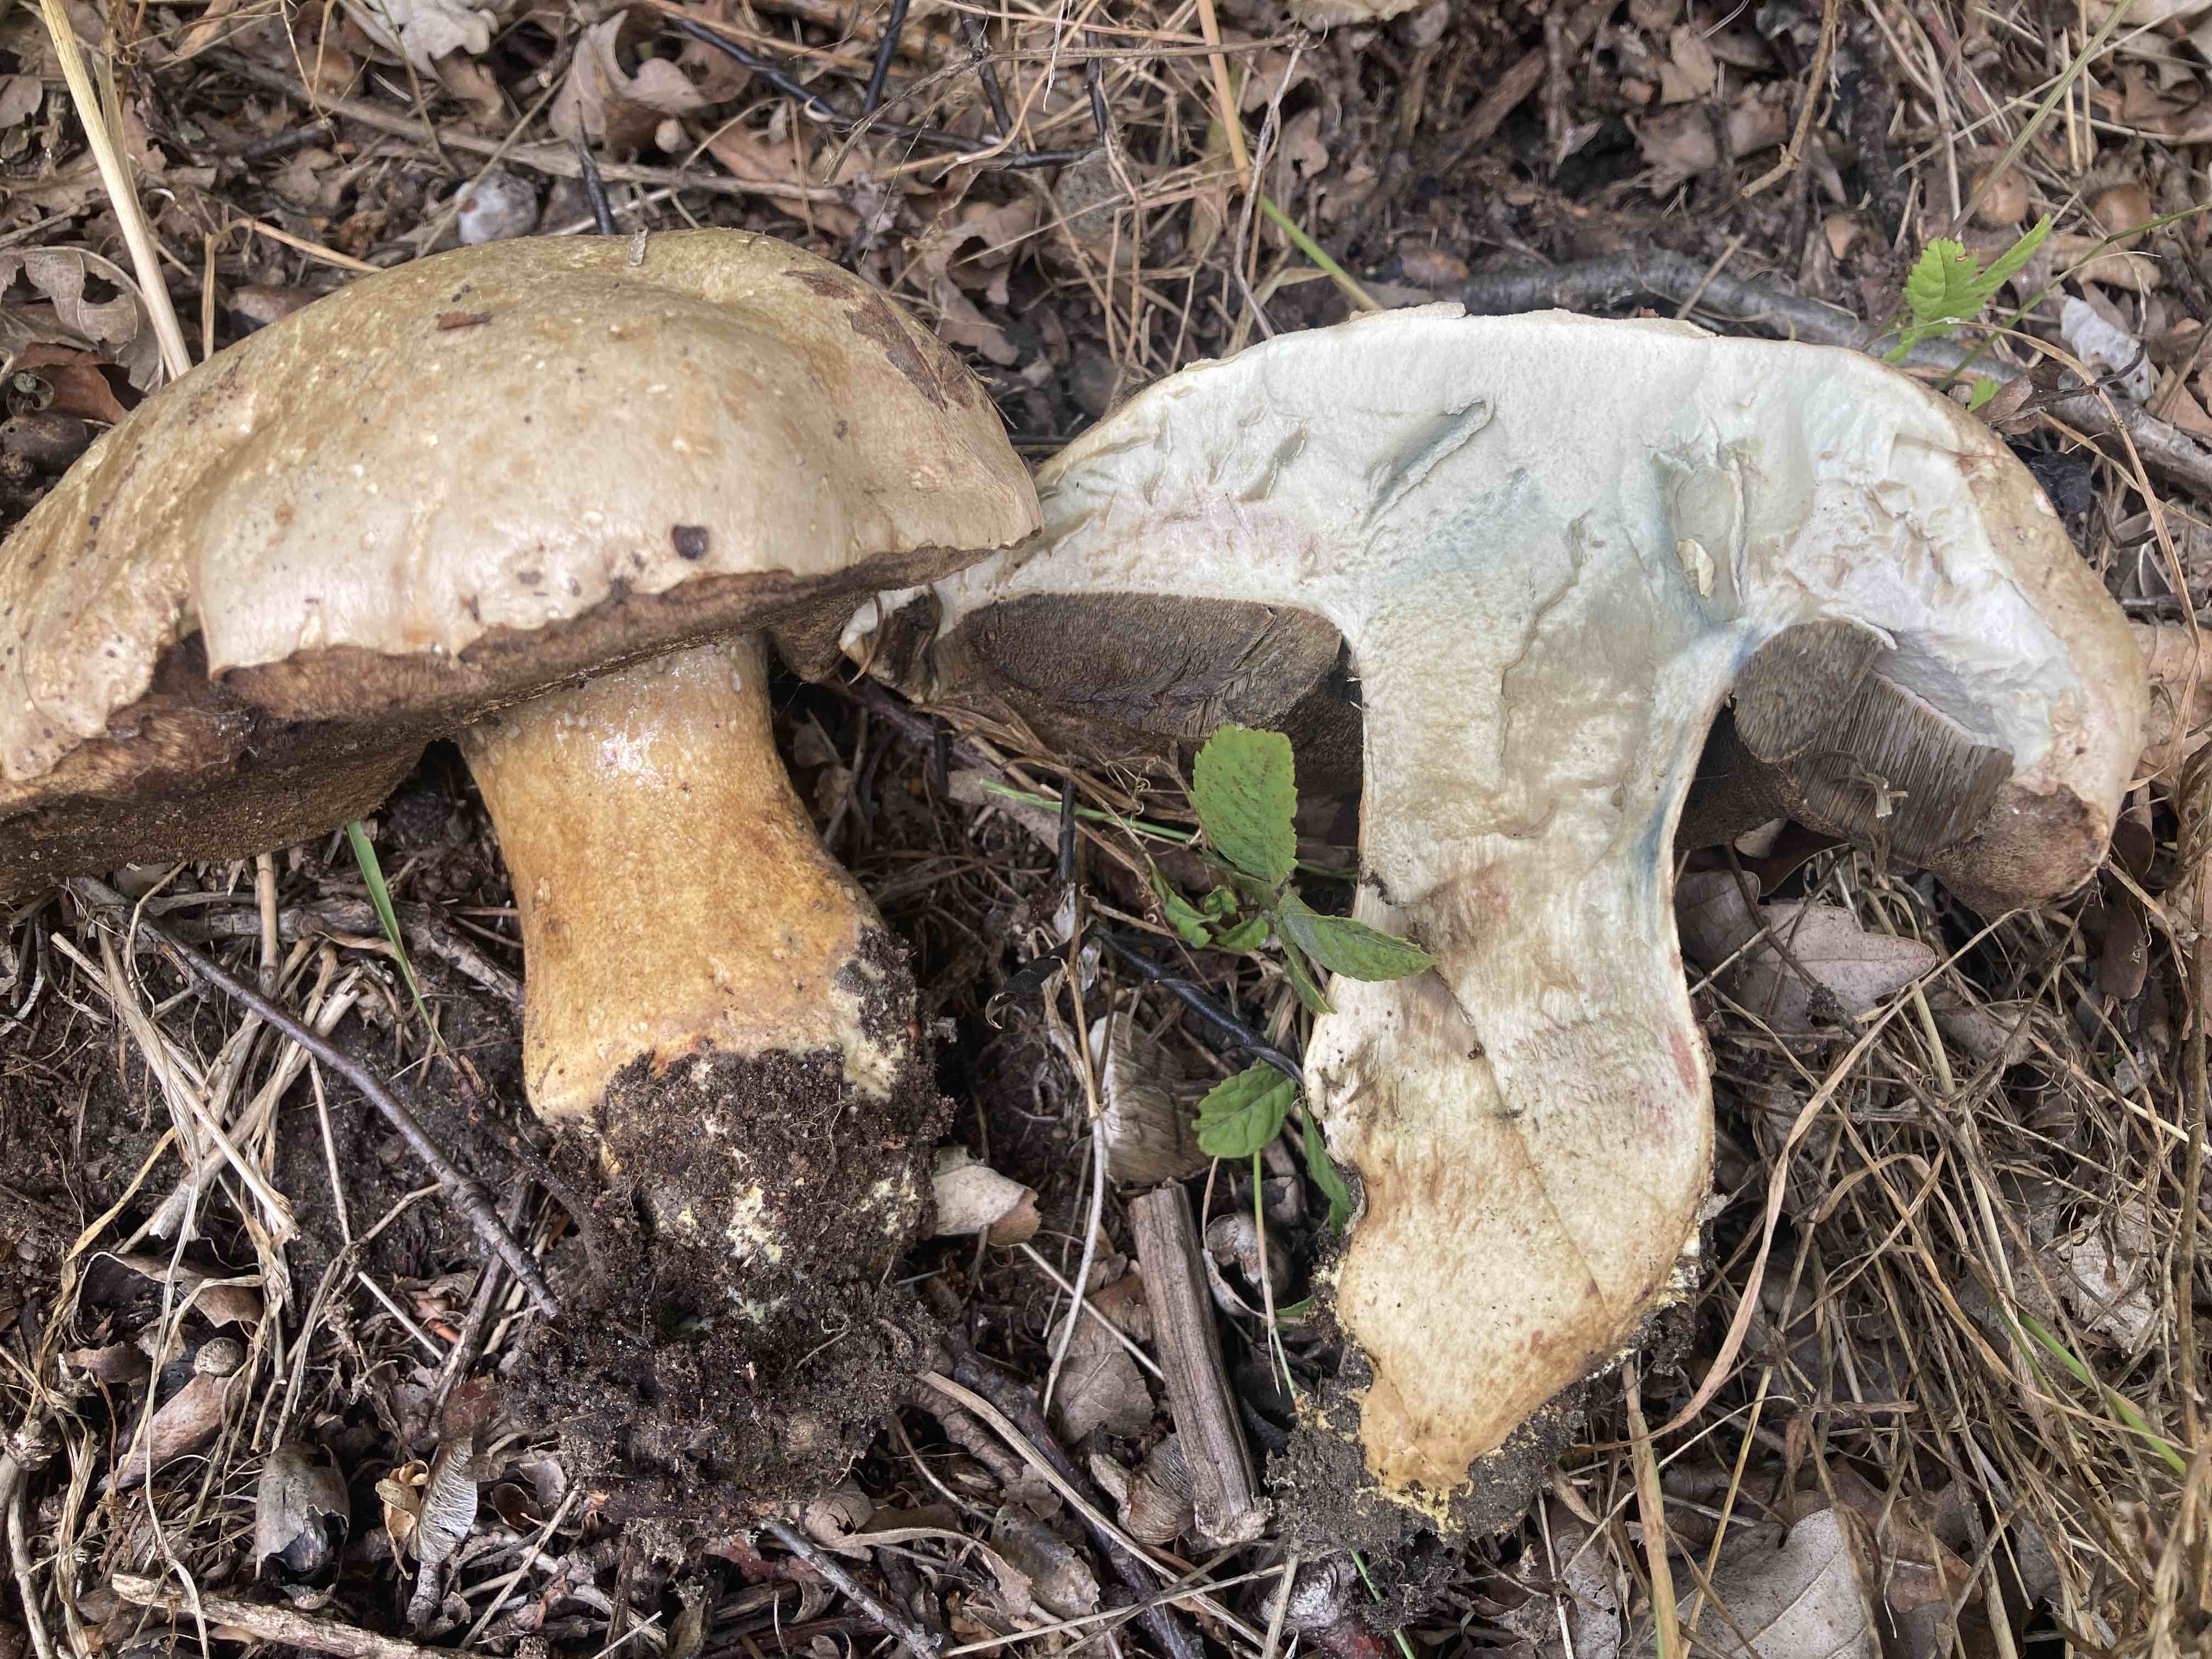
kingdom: Fungi
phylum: Basidiomycota
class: Agaricomycetes
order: Boletales
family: Boletaceae
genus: Caloboletus
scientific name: Caloboletus radicans
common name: rod-rørhat
